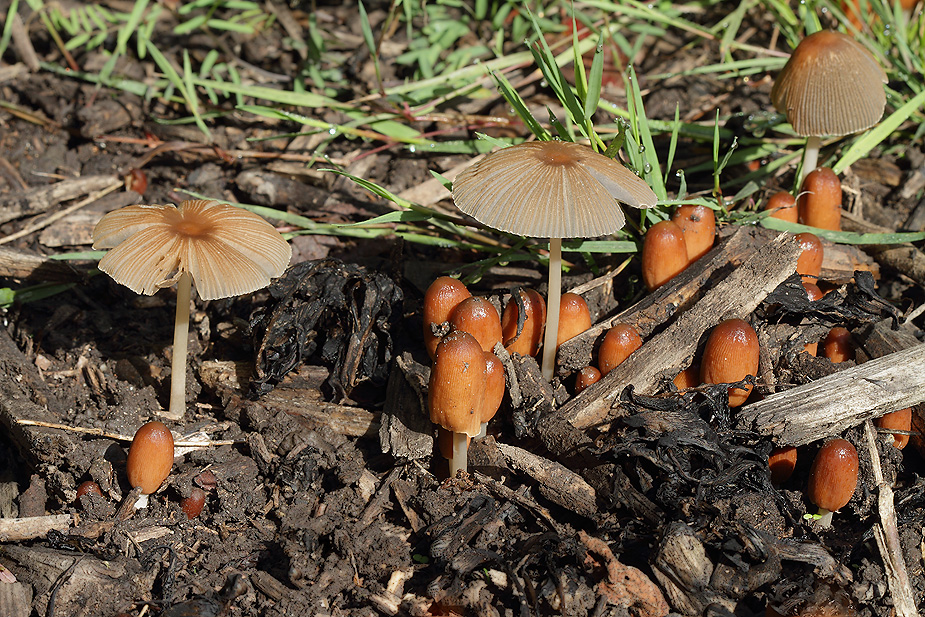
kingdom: Fungi
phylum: Basidiomycota
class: Agaricomycetes
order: Agaricales
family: Psathyrellaceae
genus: Parasola
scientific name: Parasola auricoma
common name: hansens hjulhat
